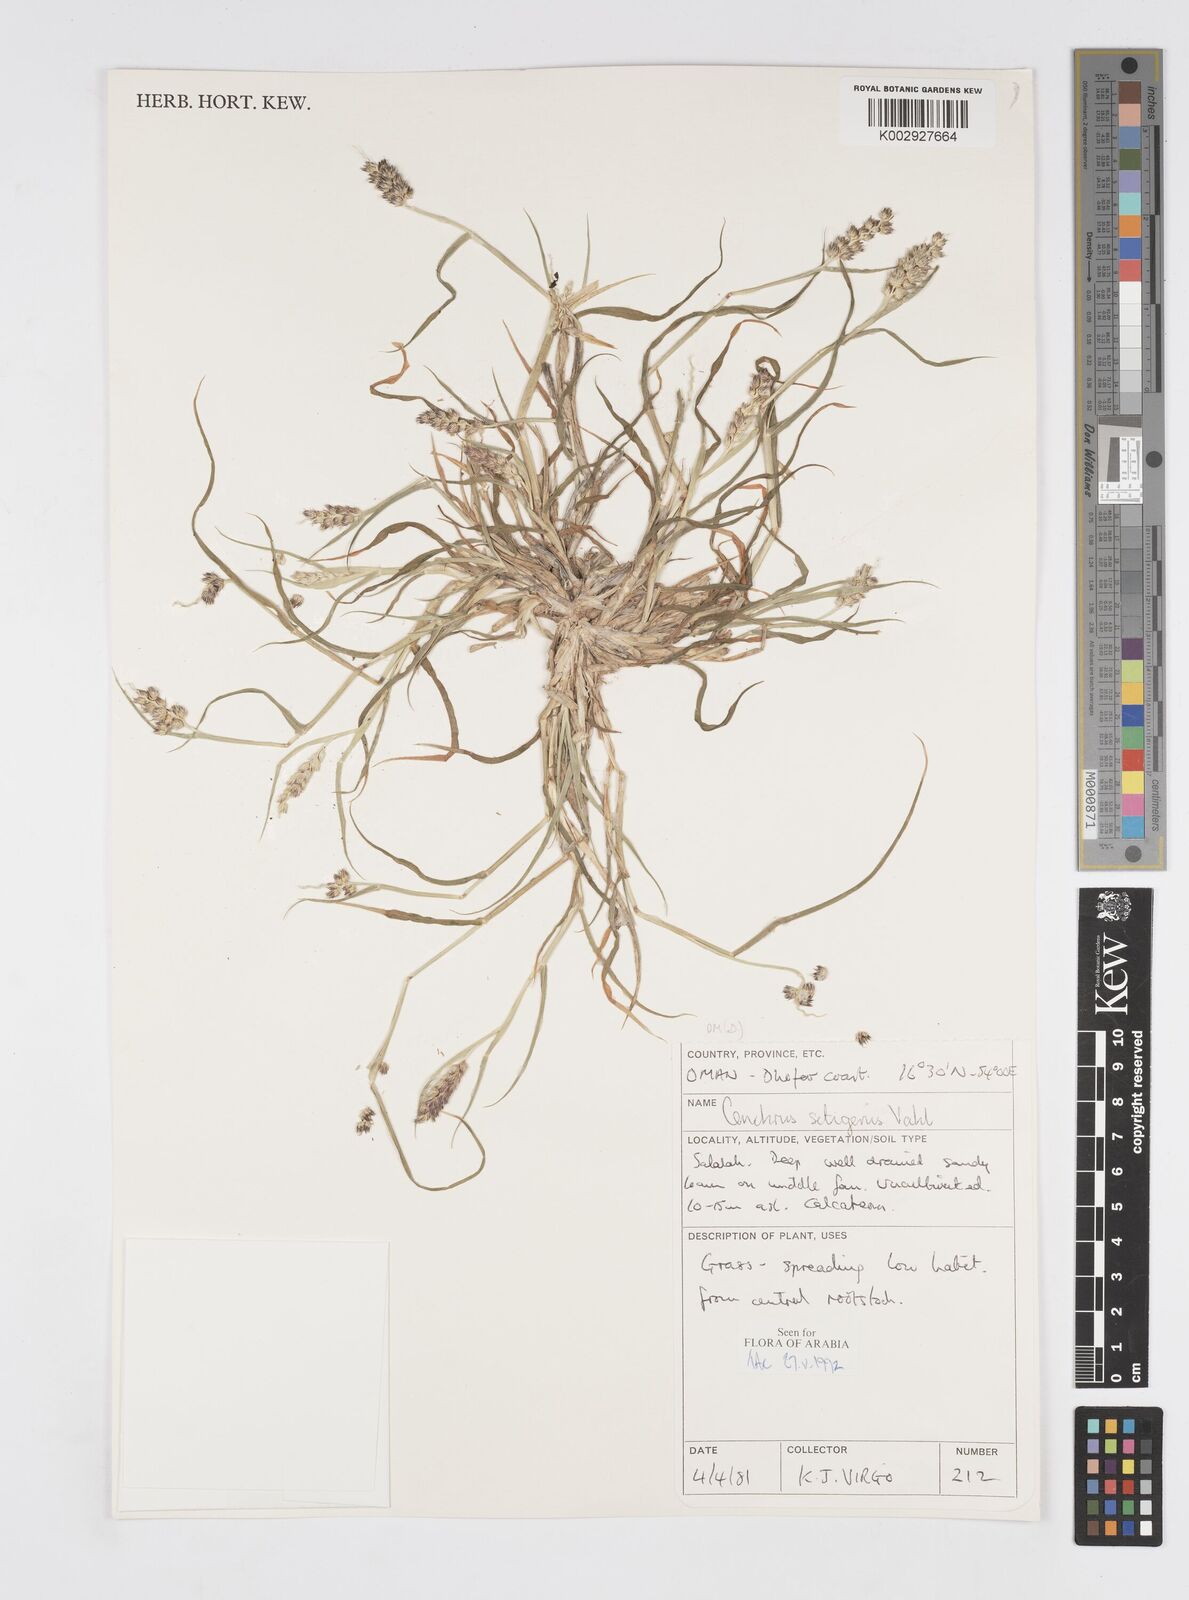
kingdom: Plantae
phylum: Tracheophyta
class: Liliopsida
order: Poales
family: Poaceae
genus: Cenchrus
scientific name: Cenchrus setigerus
